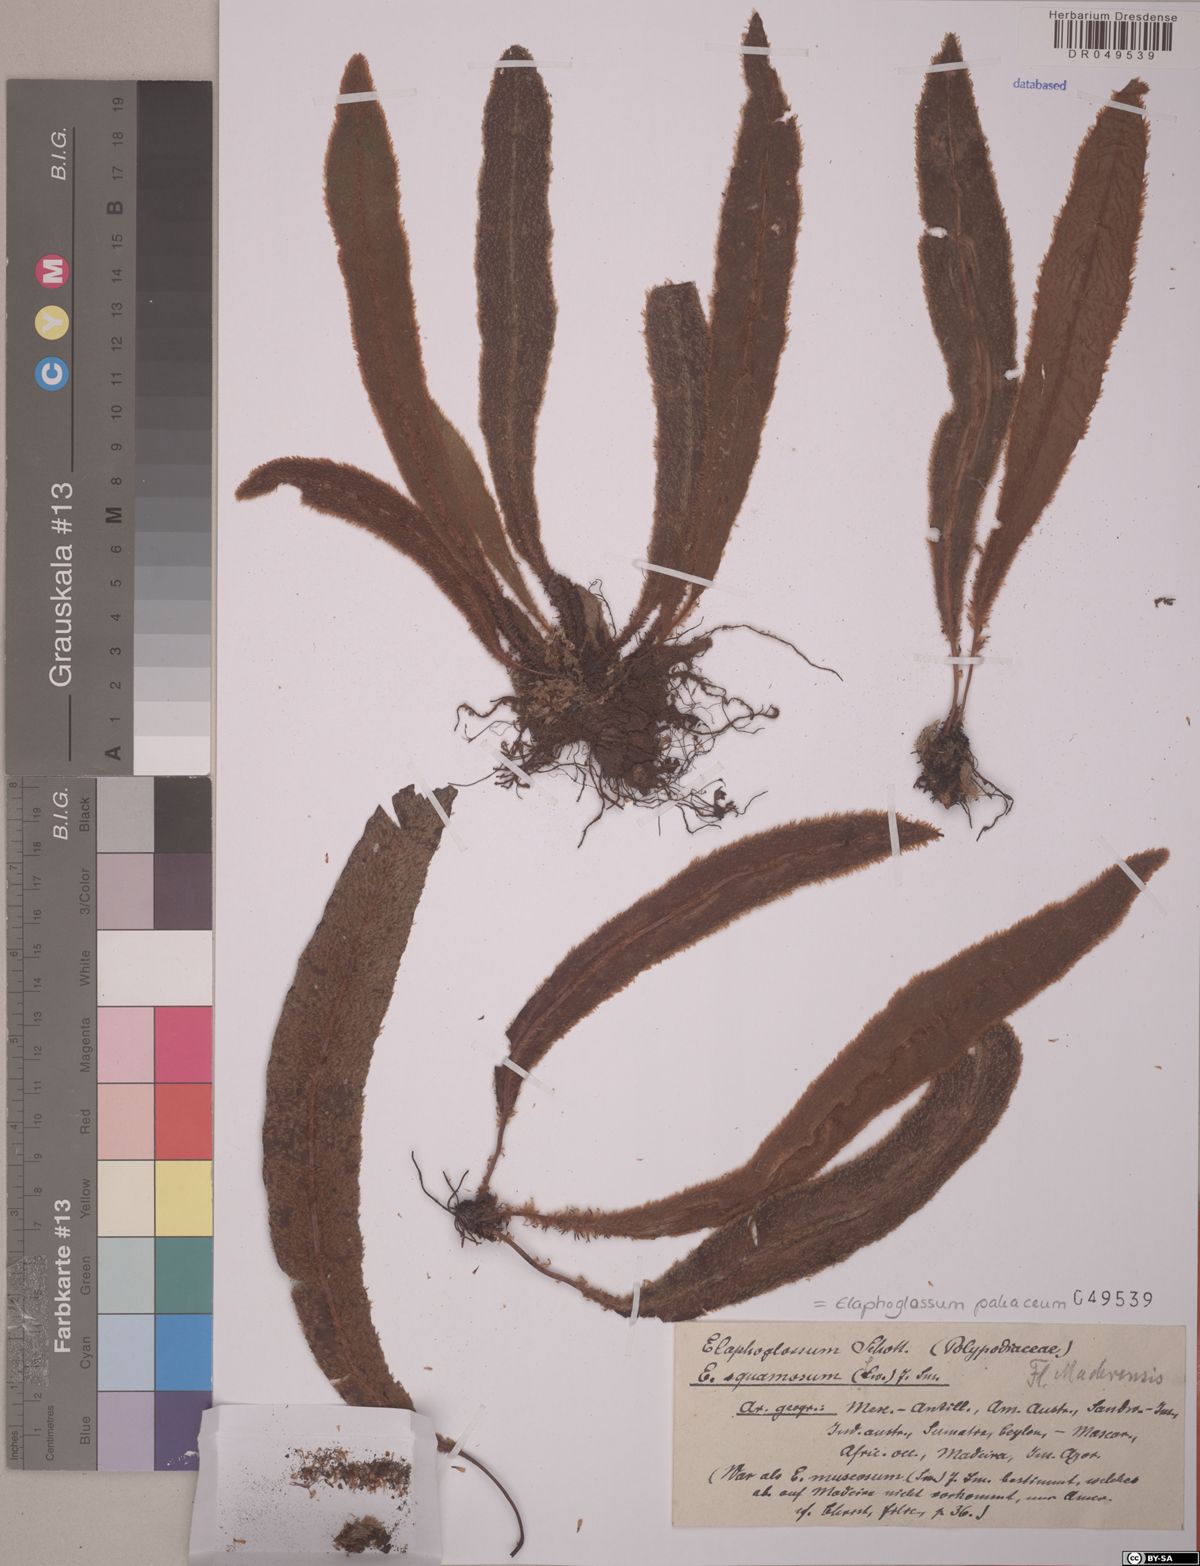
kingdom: Plantae
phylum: Tracheophyta
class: Polypodiopsida
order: Polypodiales
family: Dryopteridaceae
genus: Elaphoglossum
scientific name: Elaphoglossum paleaceum
